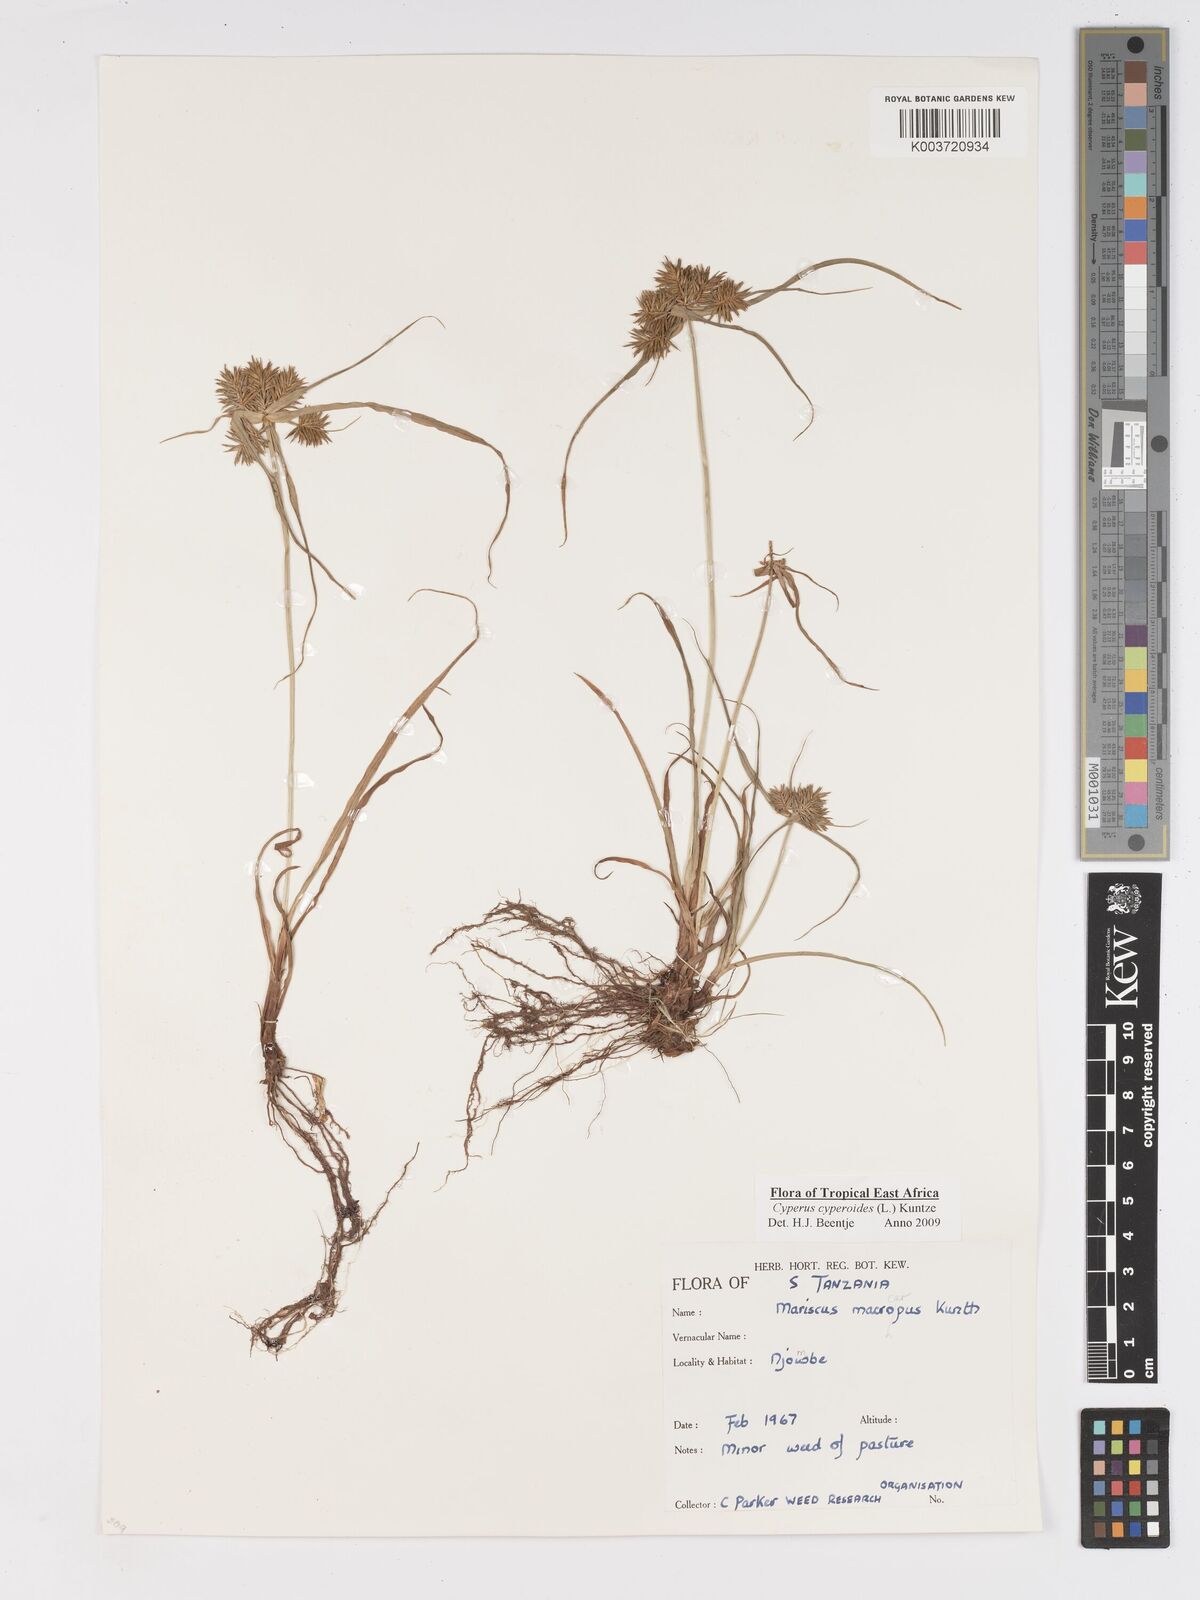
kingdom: Plantae
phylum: Tracheophyta
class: Liliopsida
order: Poales
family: Cyperaceae
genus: Cyperus
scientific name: Cyperus macrocarpus
